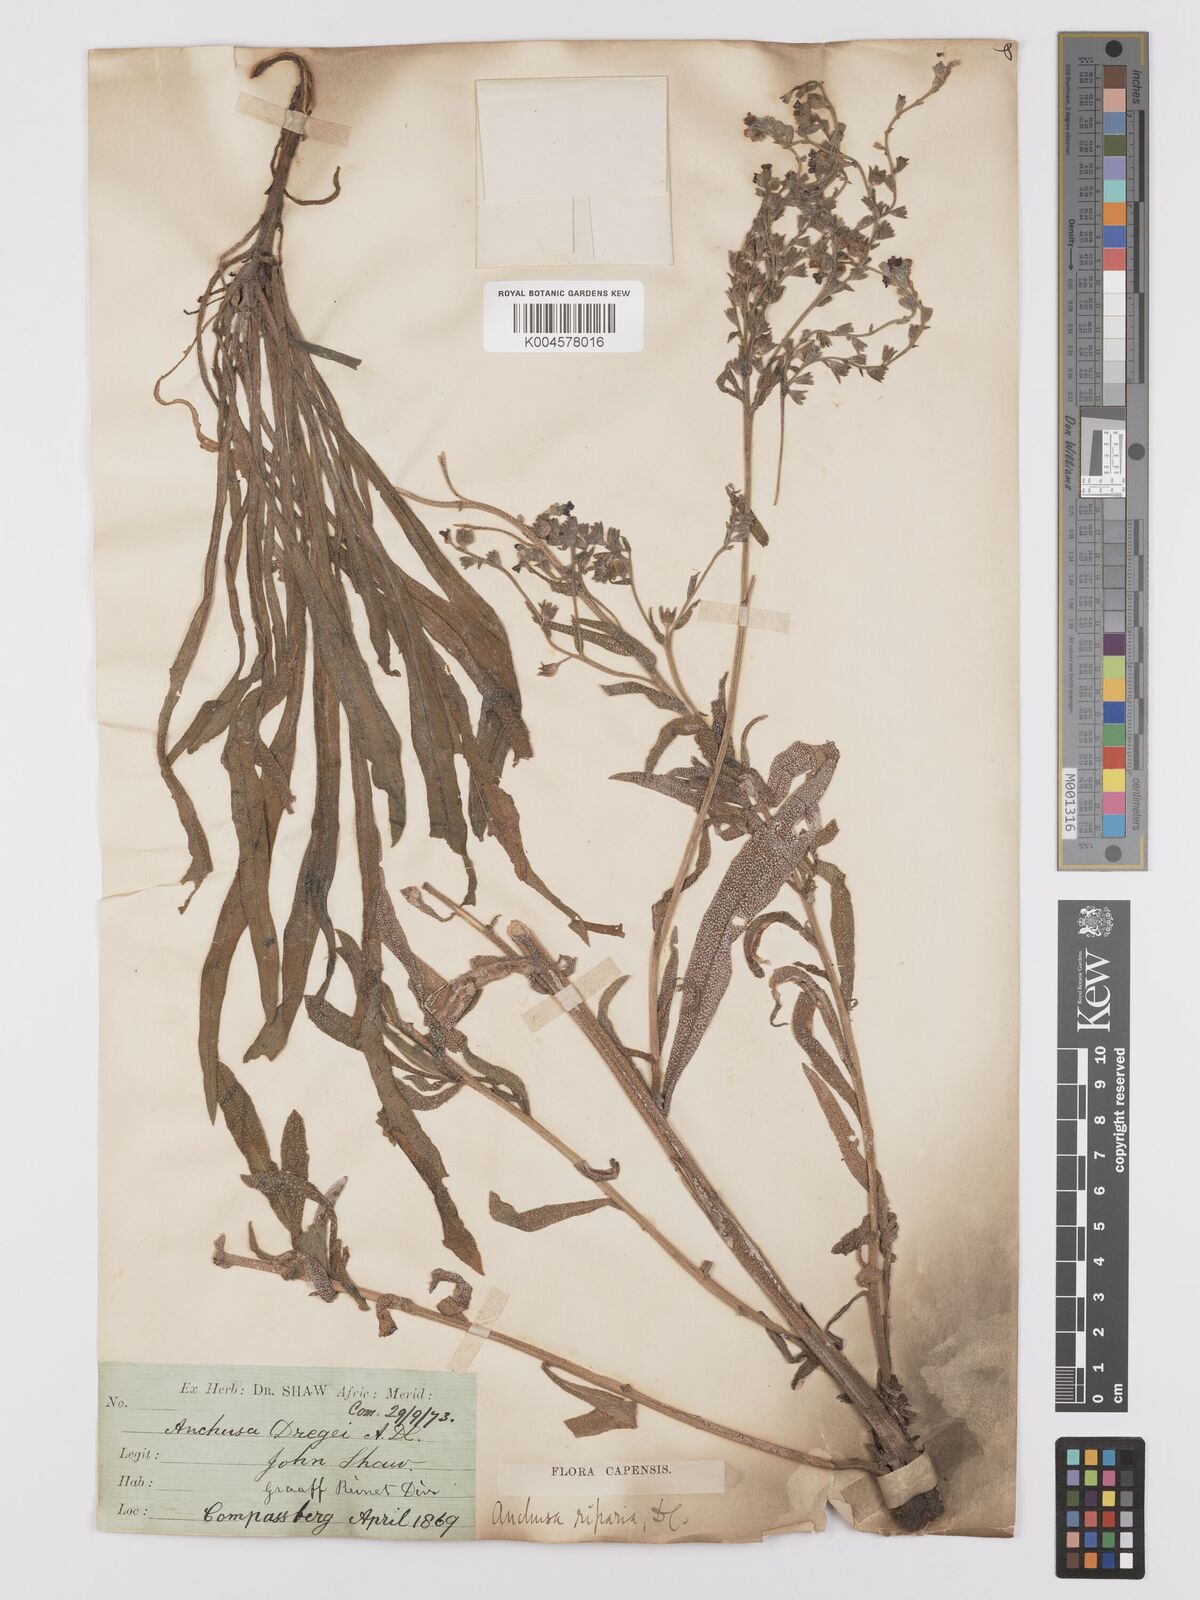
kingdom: Plantae
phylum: Tracheophyta
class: Magnoliopsida
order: Boraginales
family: Boraginaceae
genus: Anchusa
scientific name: Anchusa capensis
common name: Cape bugloss
